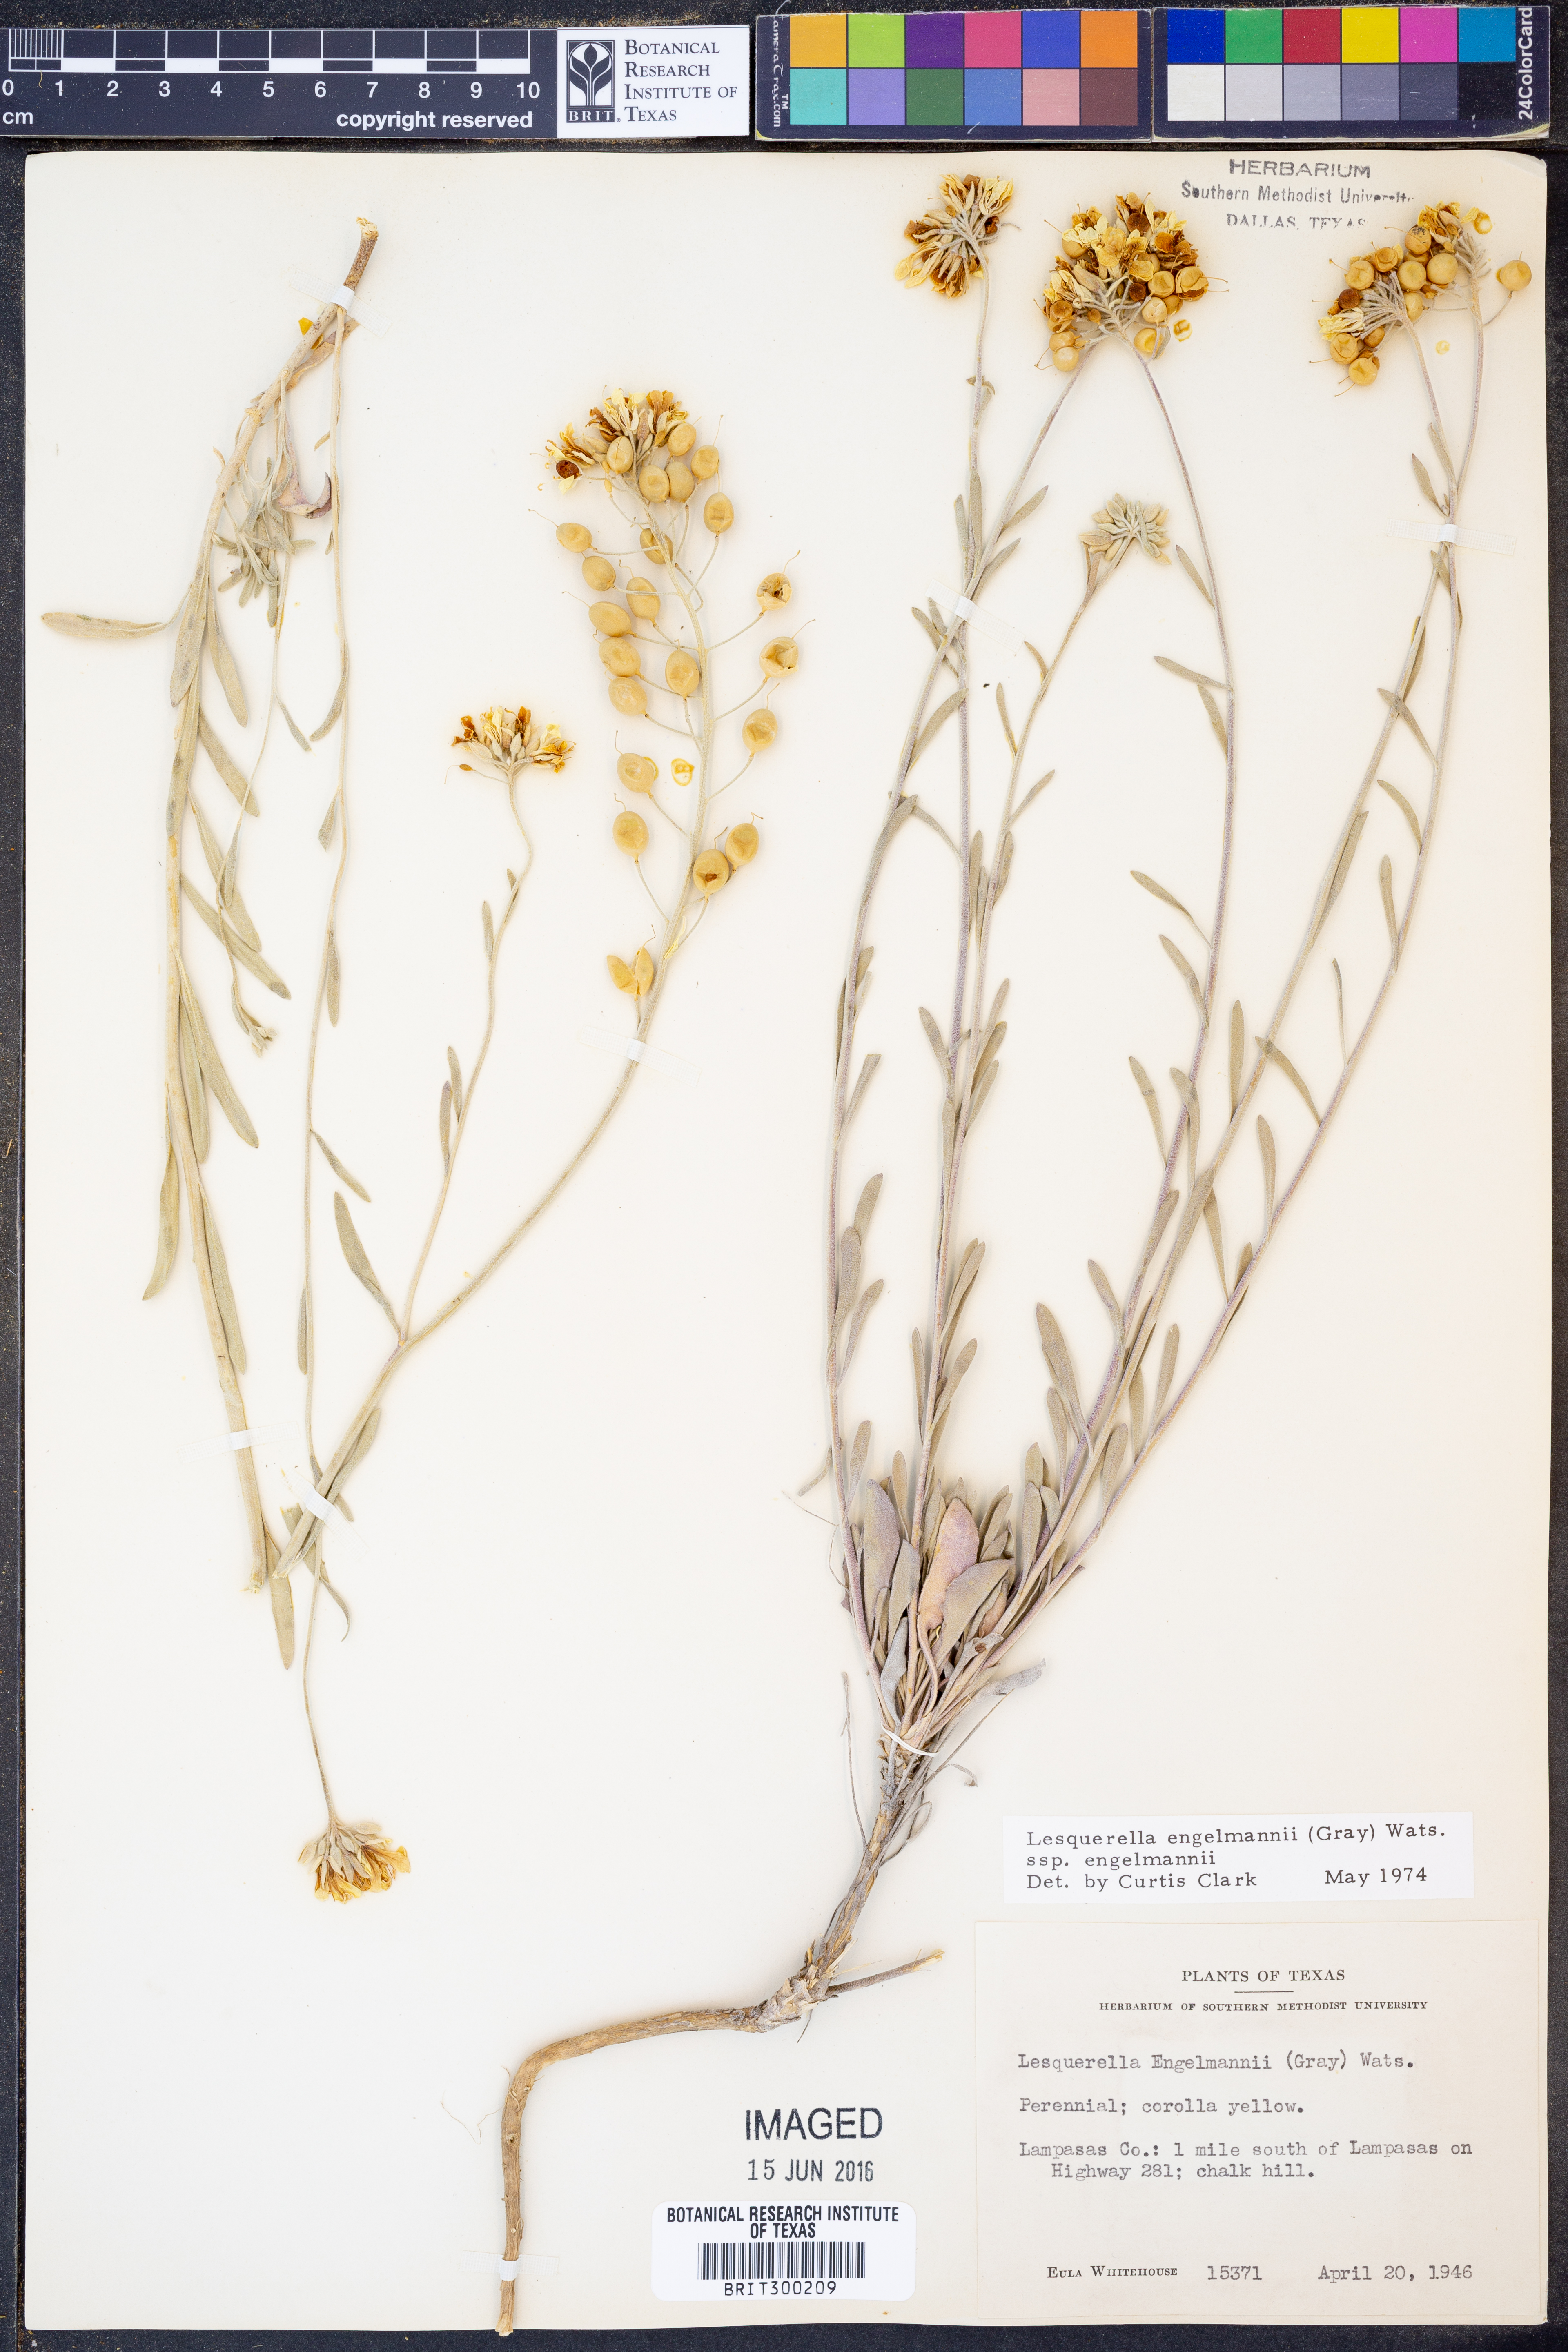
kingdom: Plantae
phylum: Tracheophyta
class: Magnoliopsida
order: Brassicales
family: Brassicaceae
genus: Physaria
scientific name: Physaria engelmannii
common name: Engelmann's bladderpod
